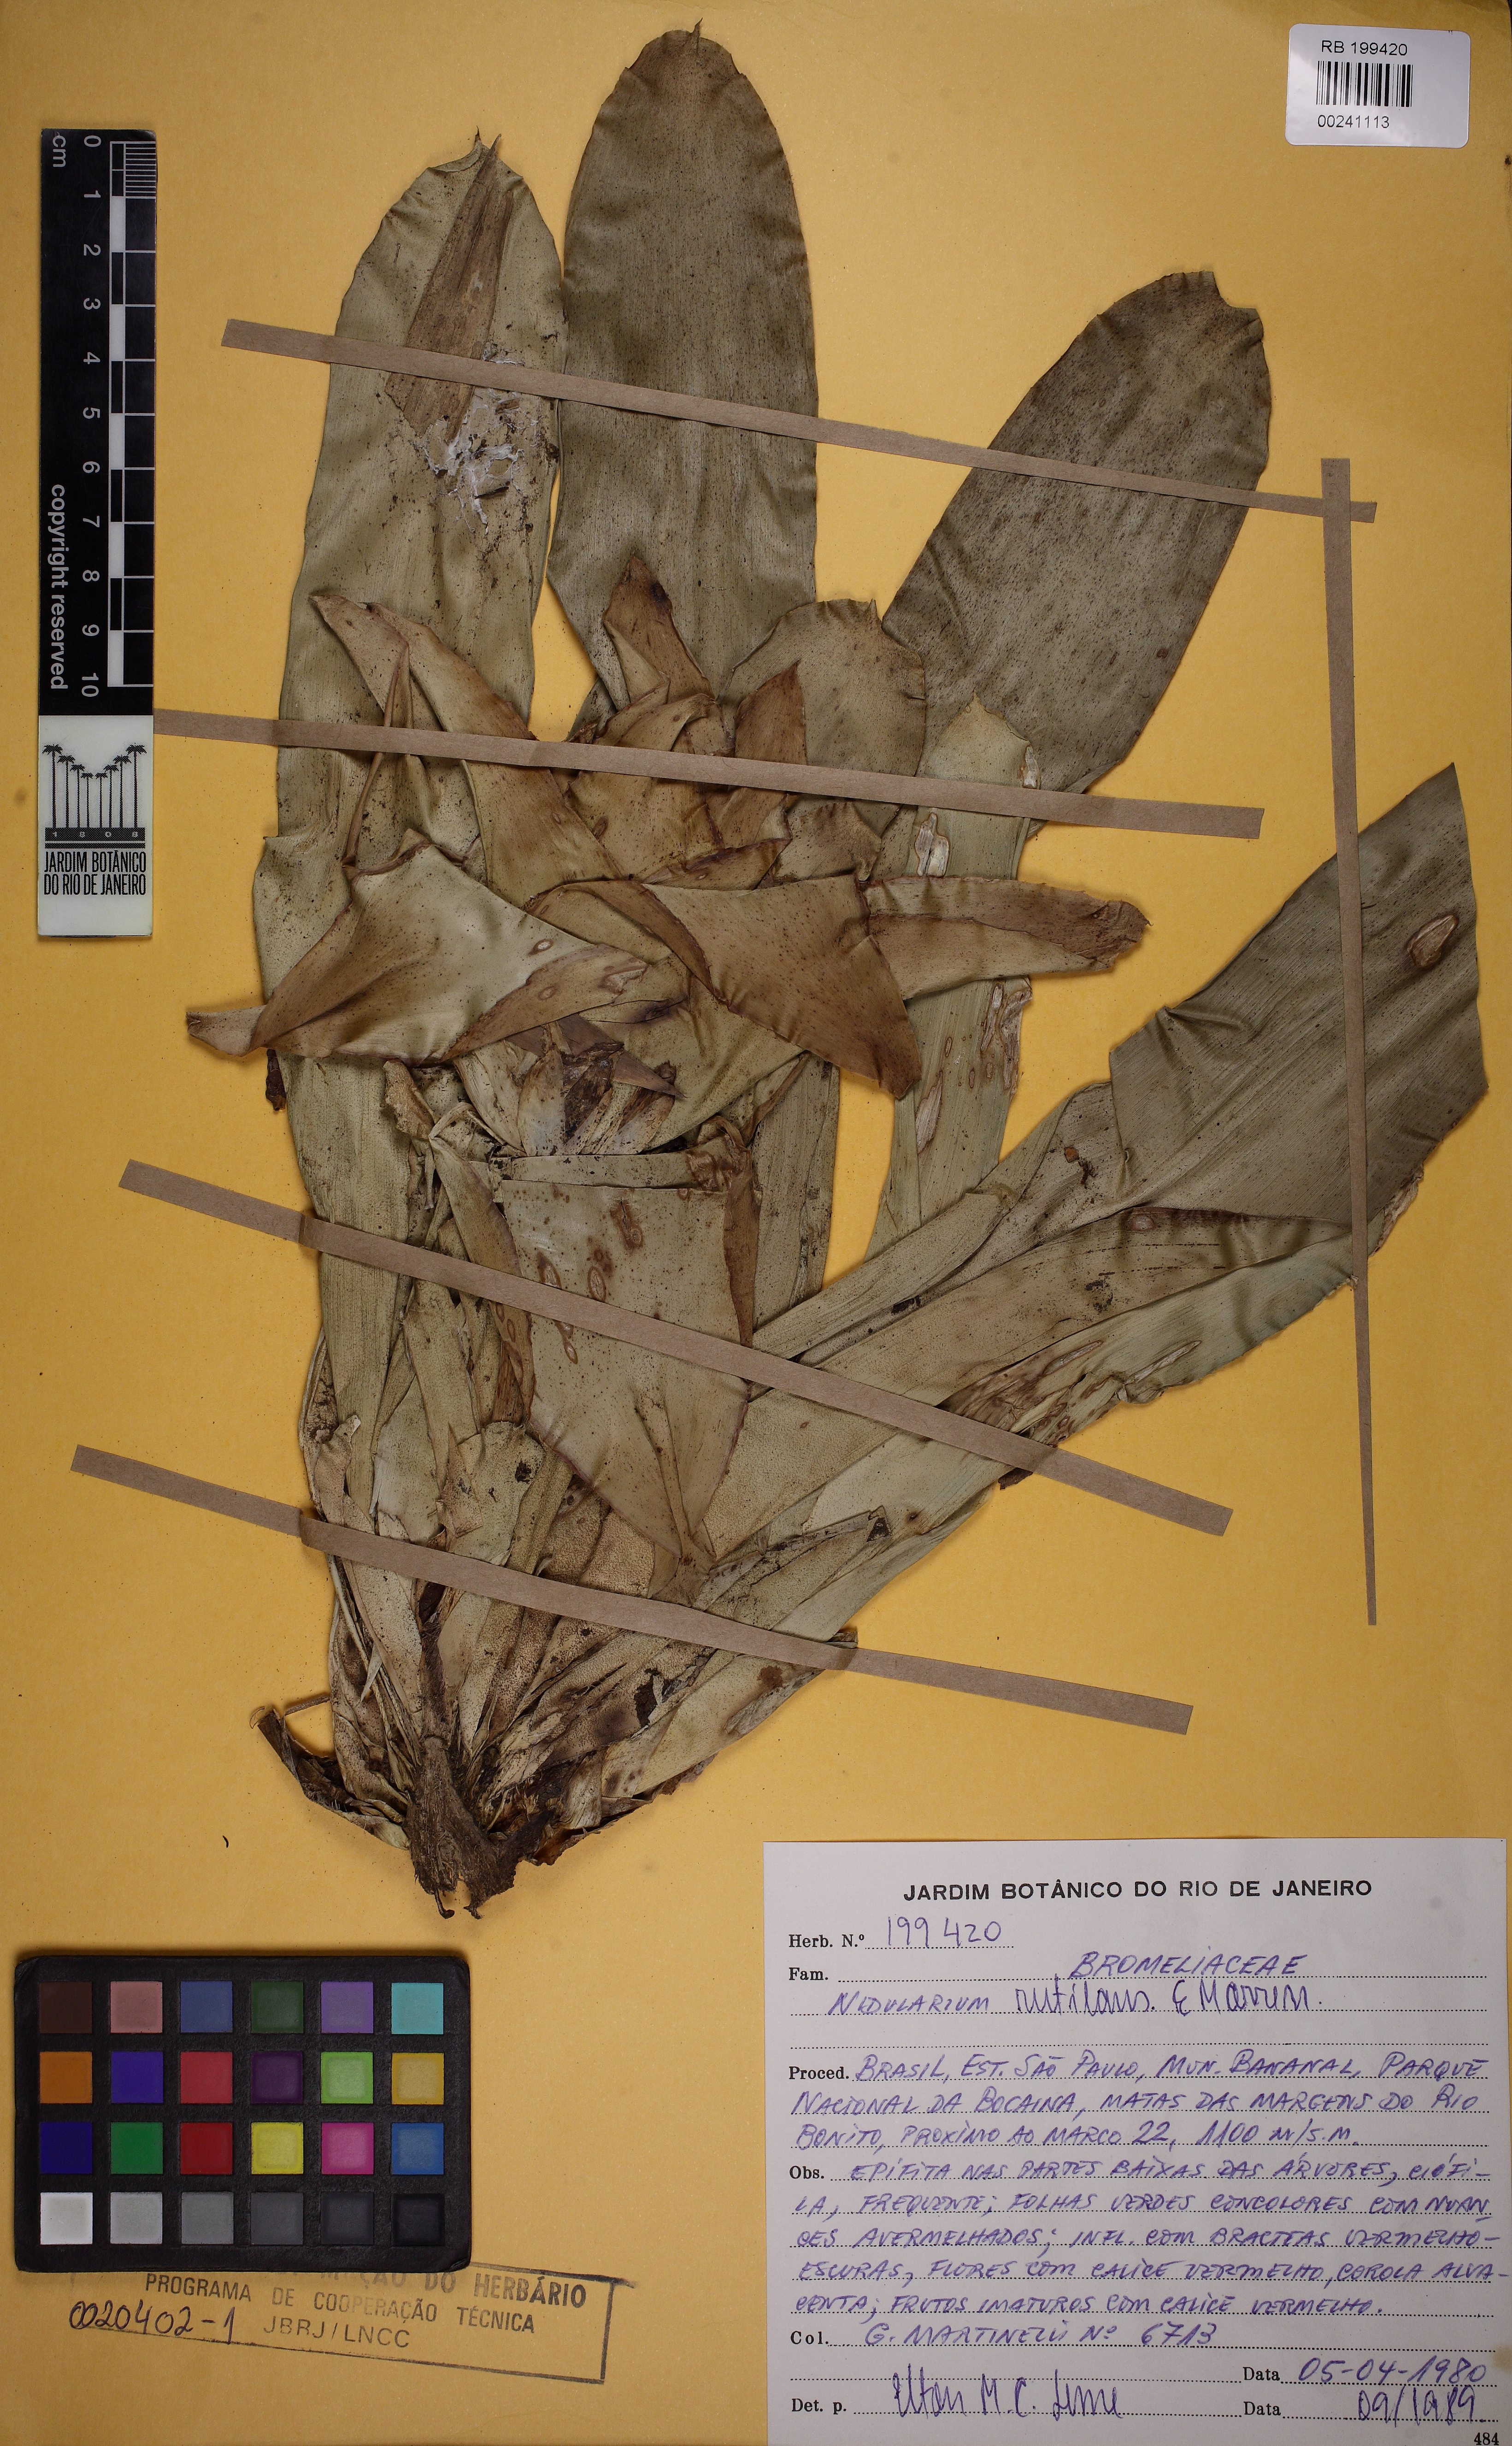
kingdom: Plantae
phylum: Tracheophyta
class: Liliopsida
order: Poales
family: Bromeliaceae
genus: Nidularium
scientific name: Nidularium rutilans
